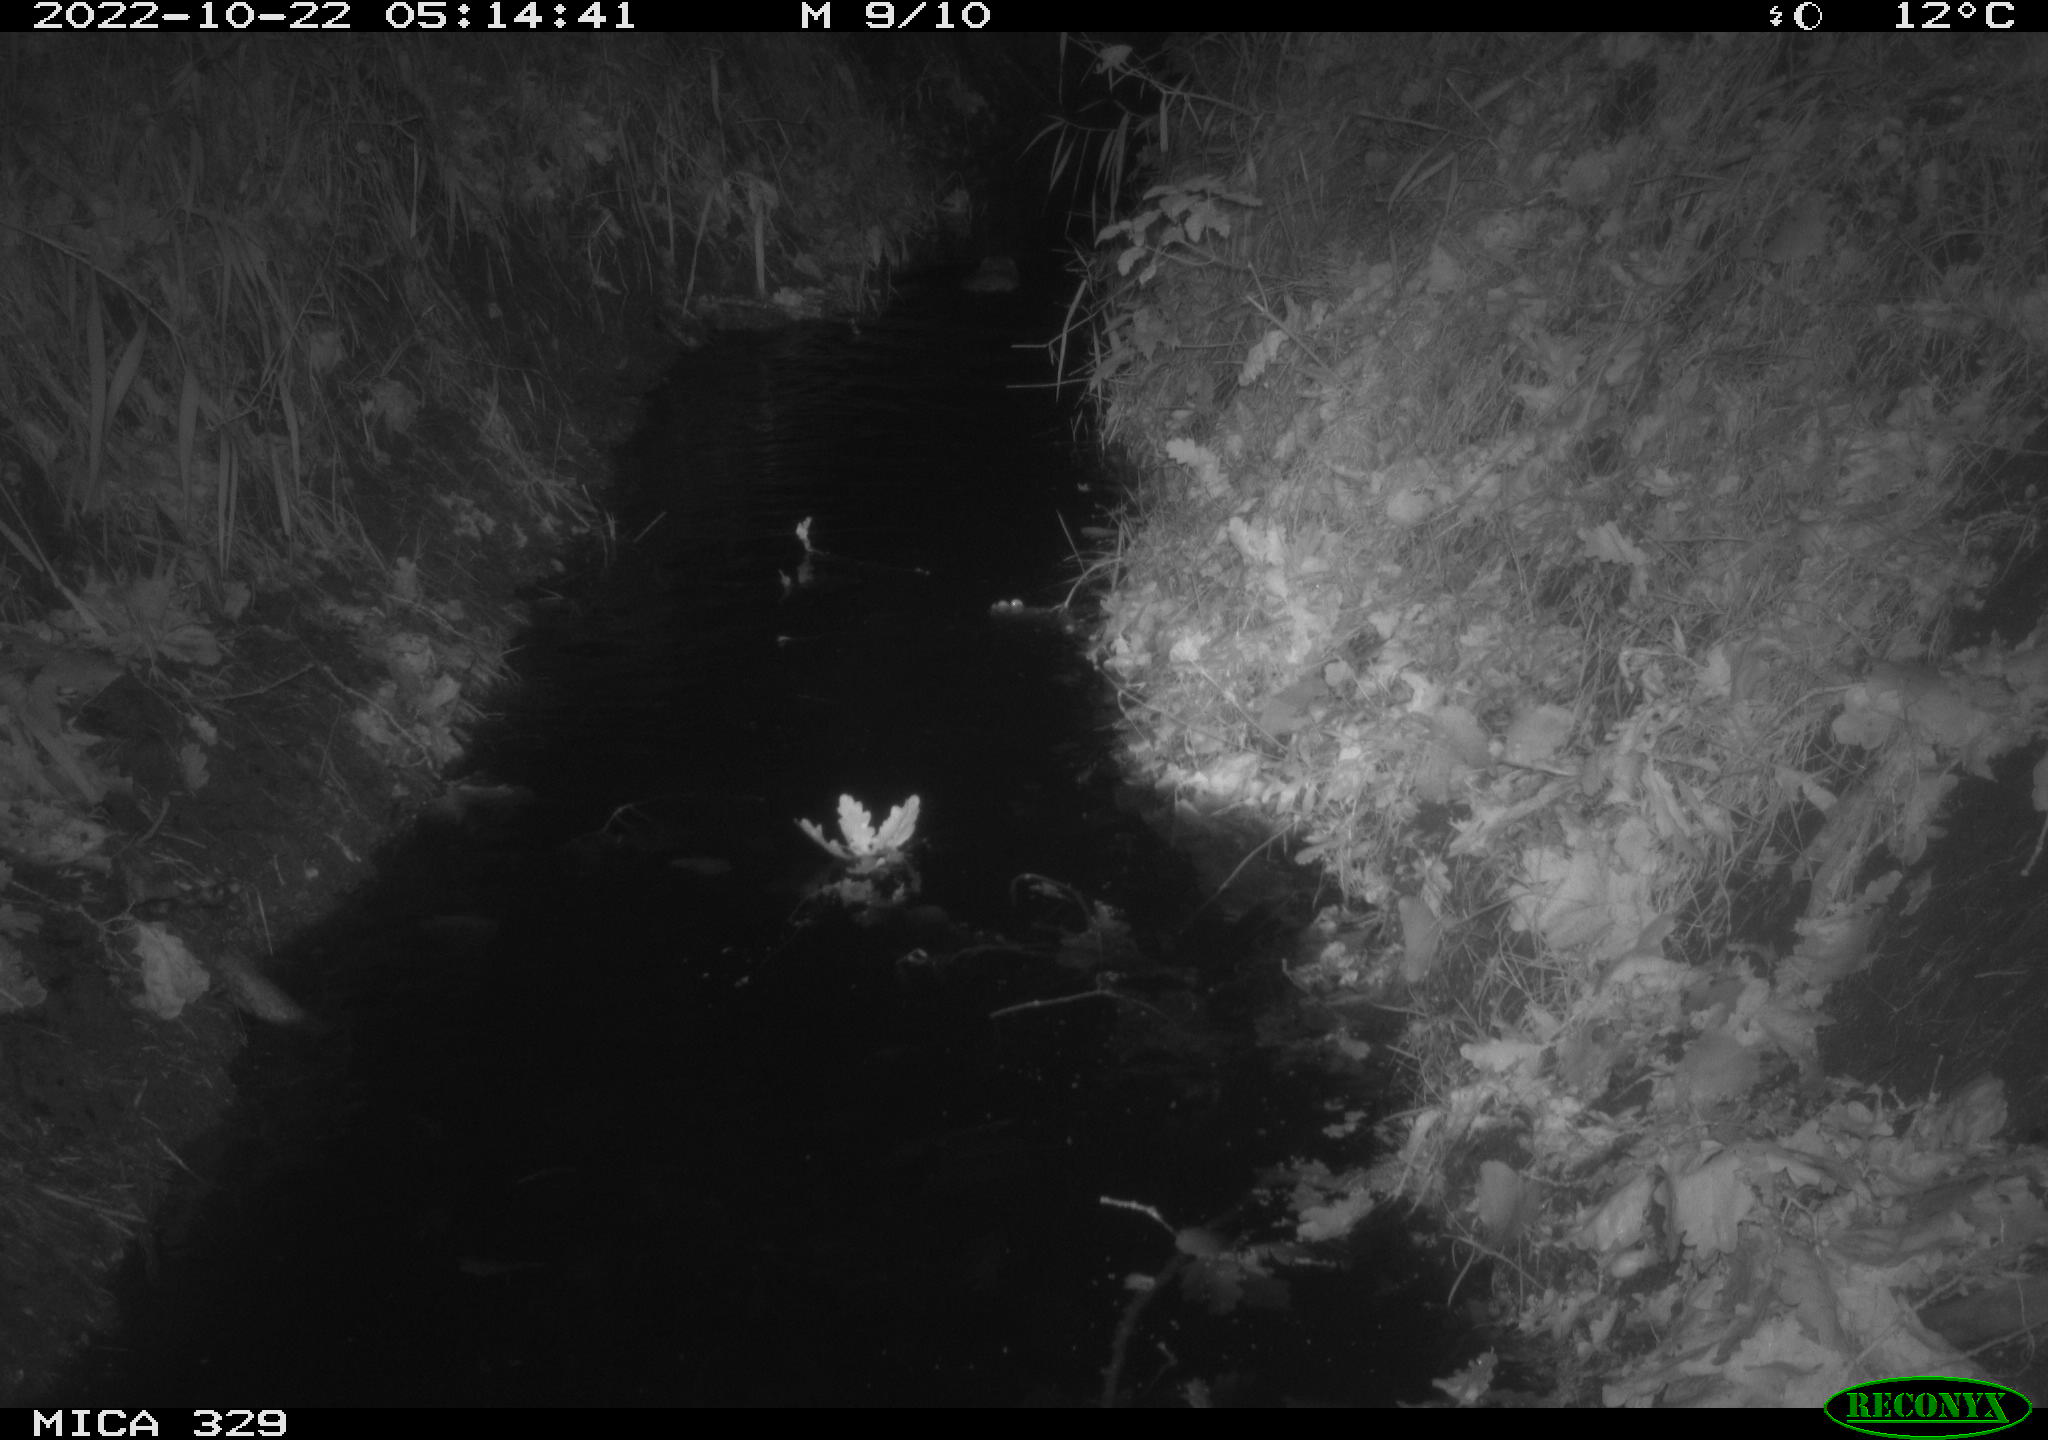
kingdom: Animalia
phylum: Chordata
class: Mammalia
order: Rodentia
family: Cricetidae
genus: Ondatra
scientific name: Ondatra zibethicus
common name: Muskrat
